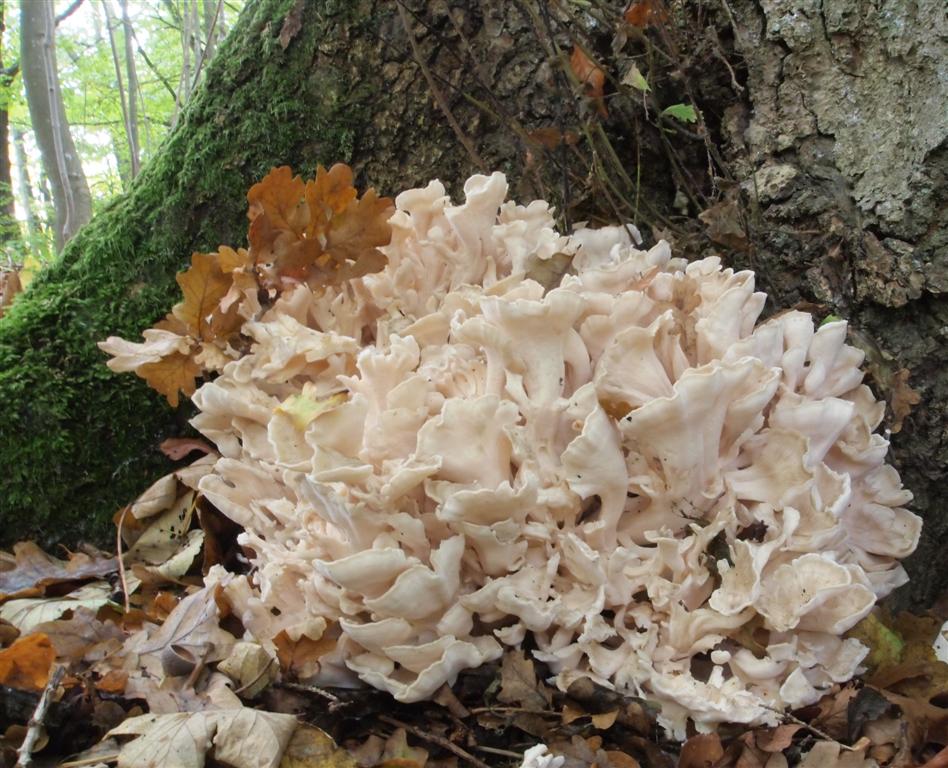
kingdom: Fungi
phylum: Basidiomycota
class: Agaricomycetes
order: Polyporales
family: Grifolaceae
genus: Grifola
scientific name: Grifola frondosa
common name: tueporesvamp
